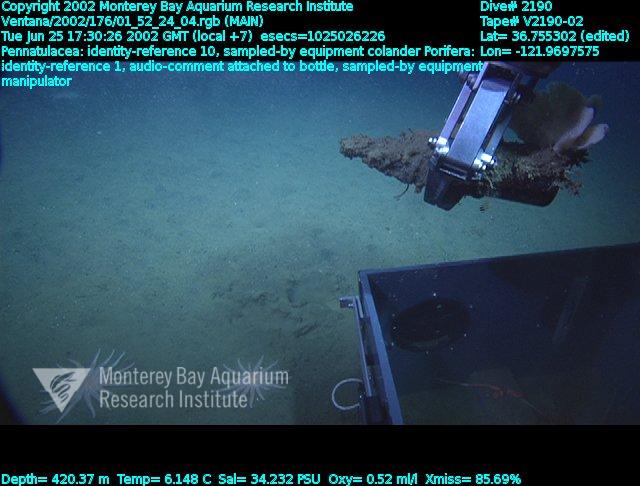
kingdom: Animalia
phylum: Porifera
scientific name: Porifera
